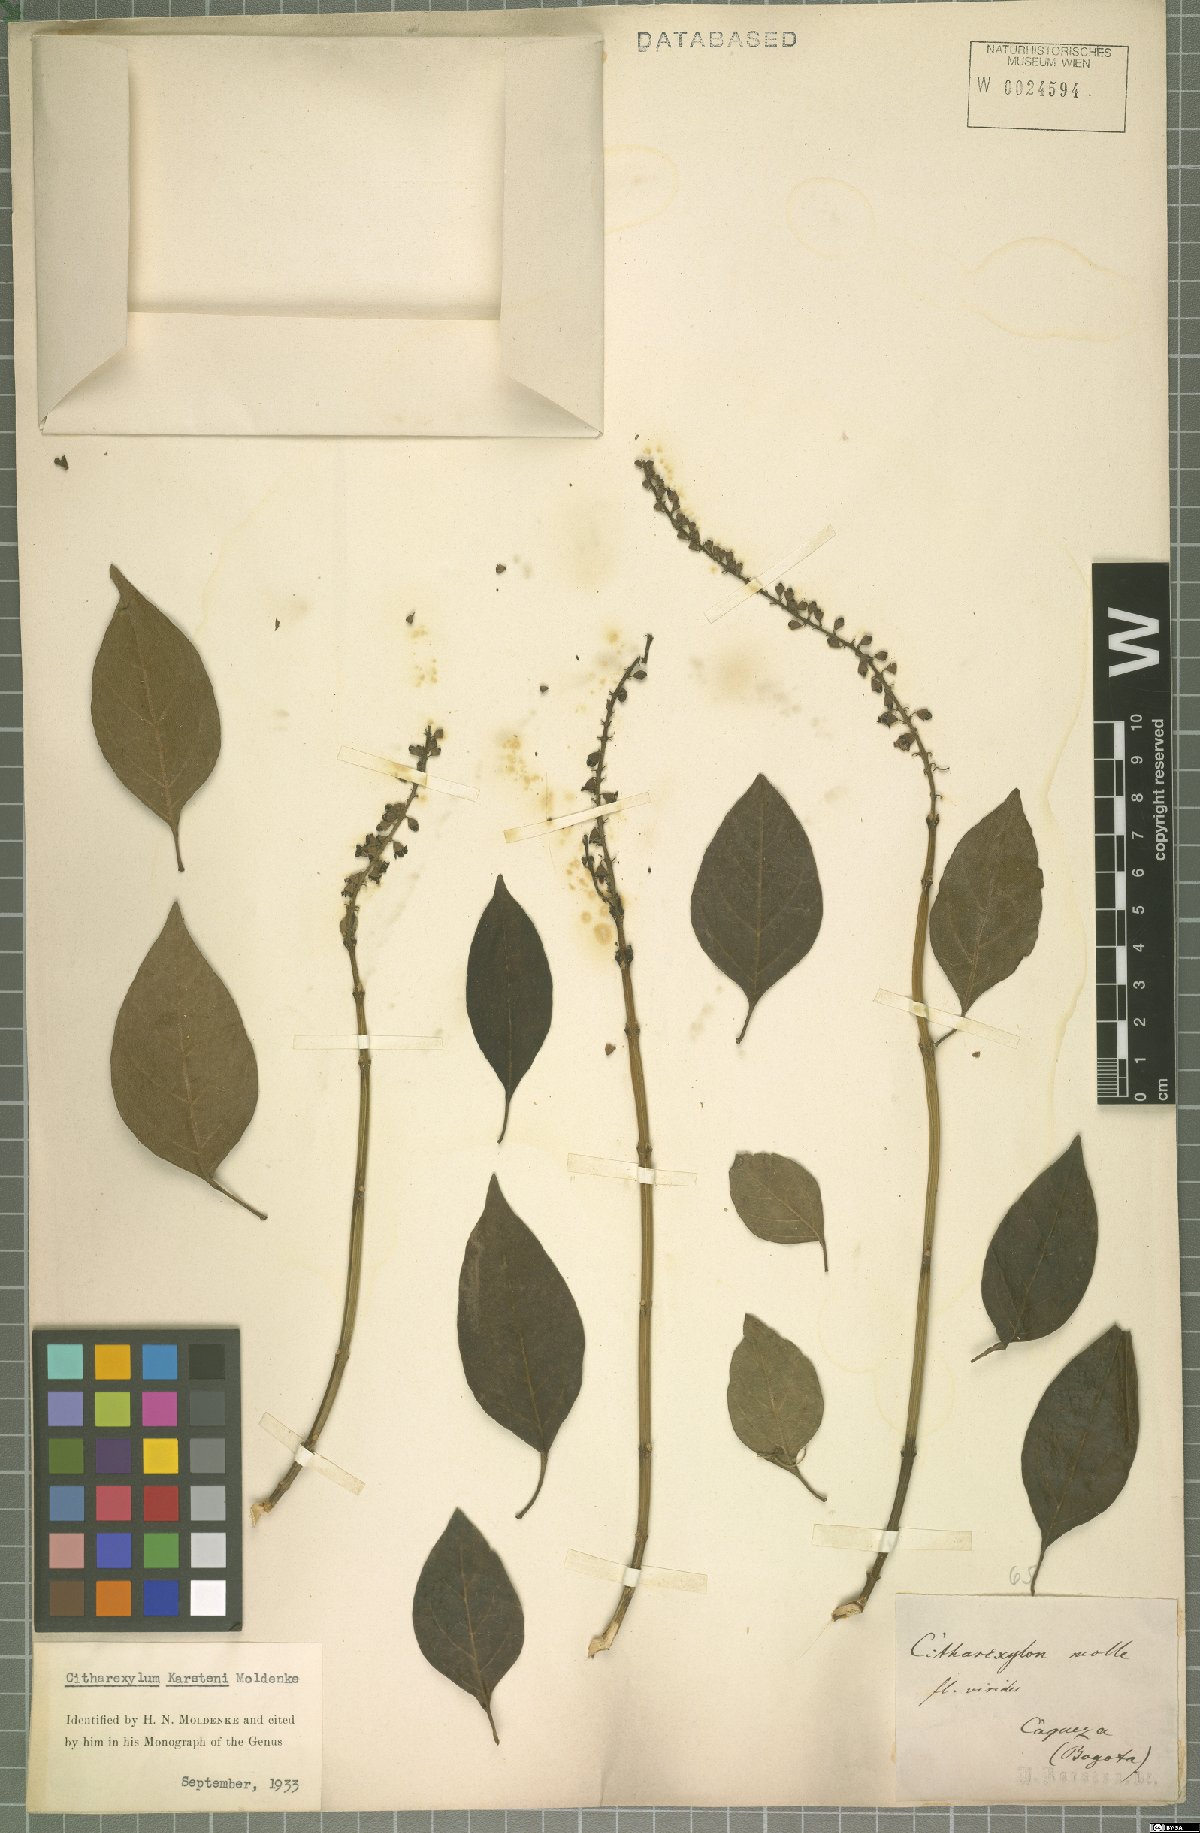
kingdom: Plantae
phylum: Tracheophyta
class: Magnoliopsida
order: Lamiales
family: Verbenaceae
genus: Citharexylum
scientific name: Citharexylum karstenii
